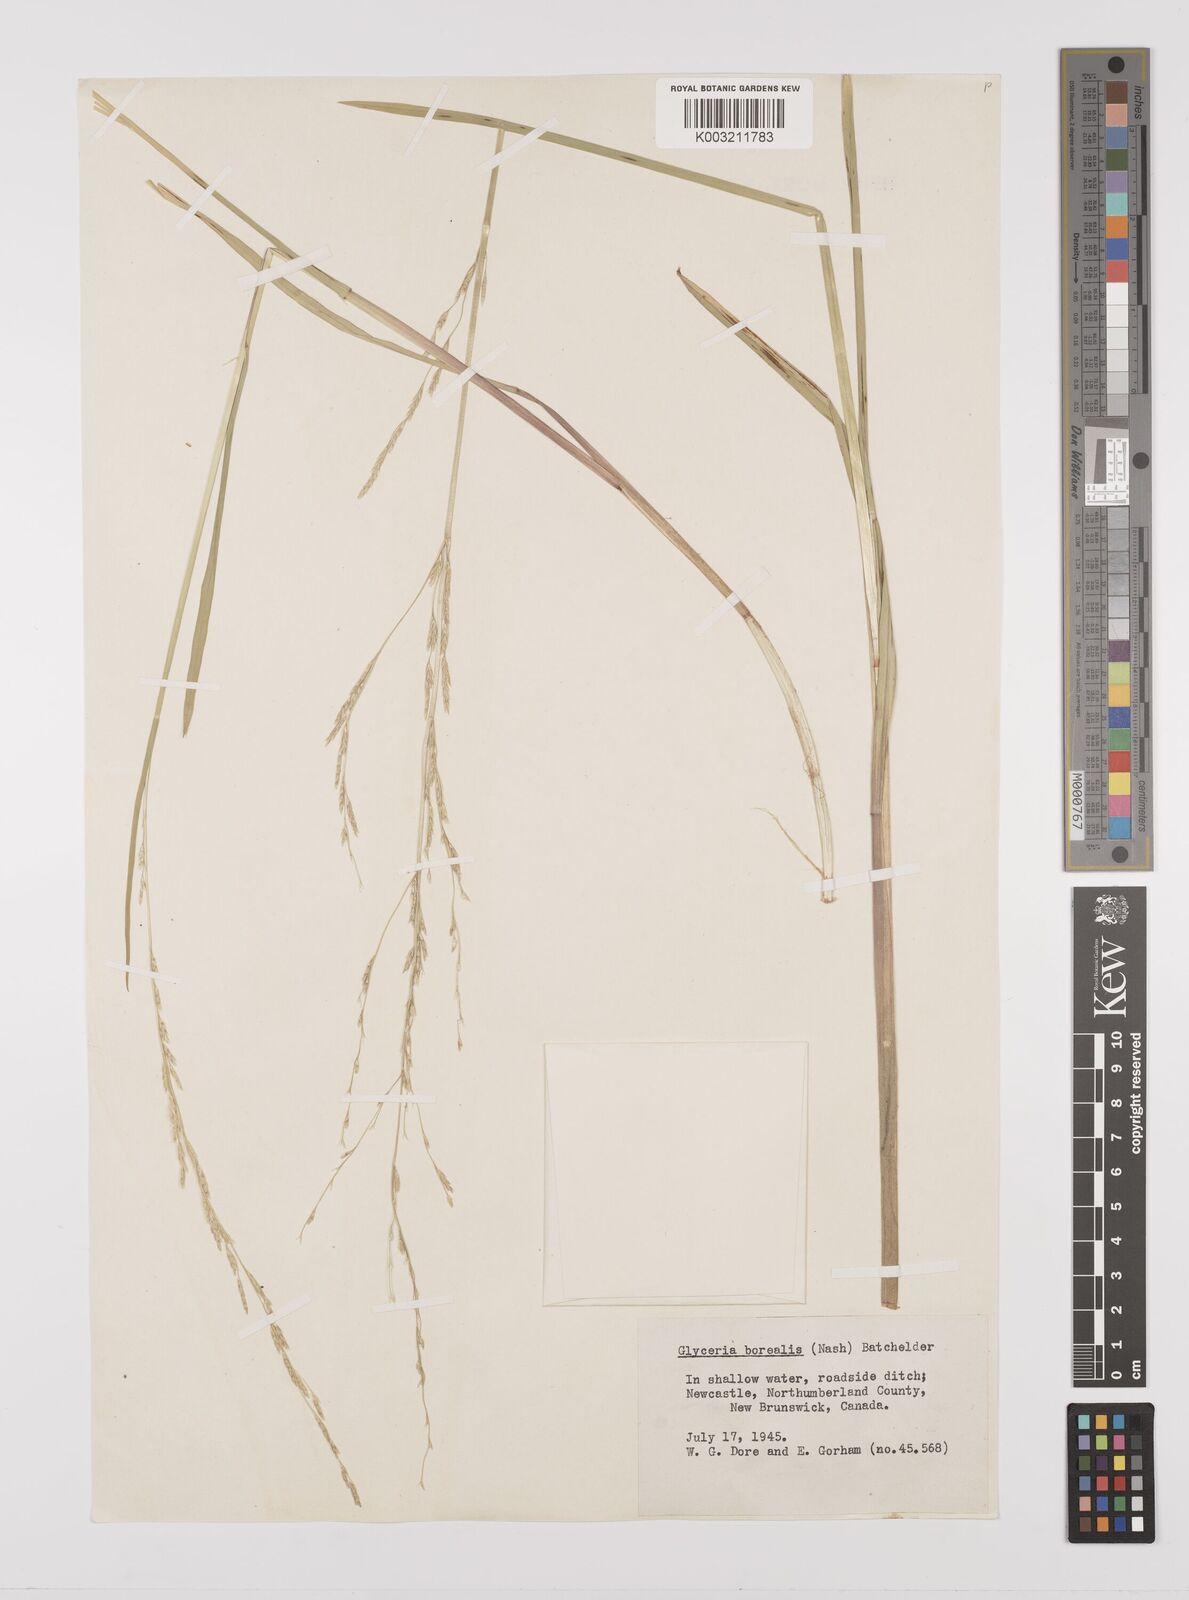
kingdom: Plantae
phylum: Tracheophyta
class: Liliopsida
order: Poales
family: Poaceae
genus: Glyceria
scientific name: Glyceria borealis
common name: Boreal glyceria
